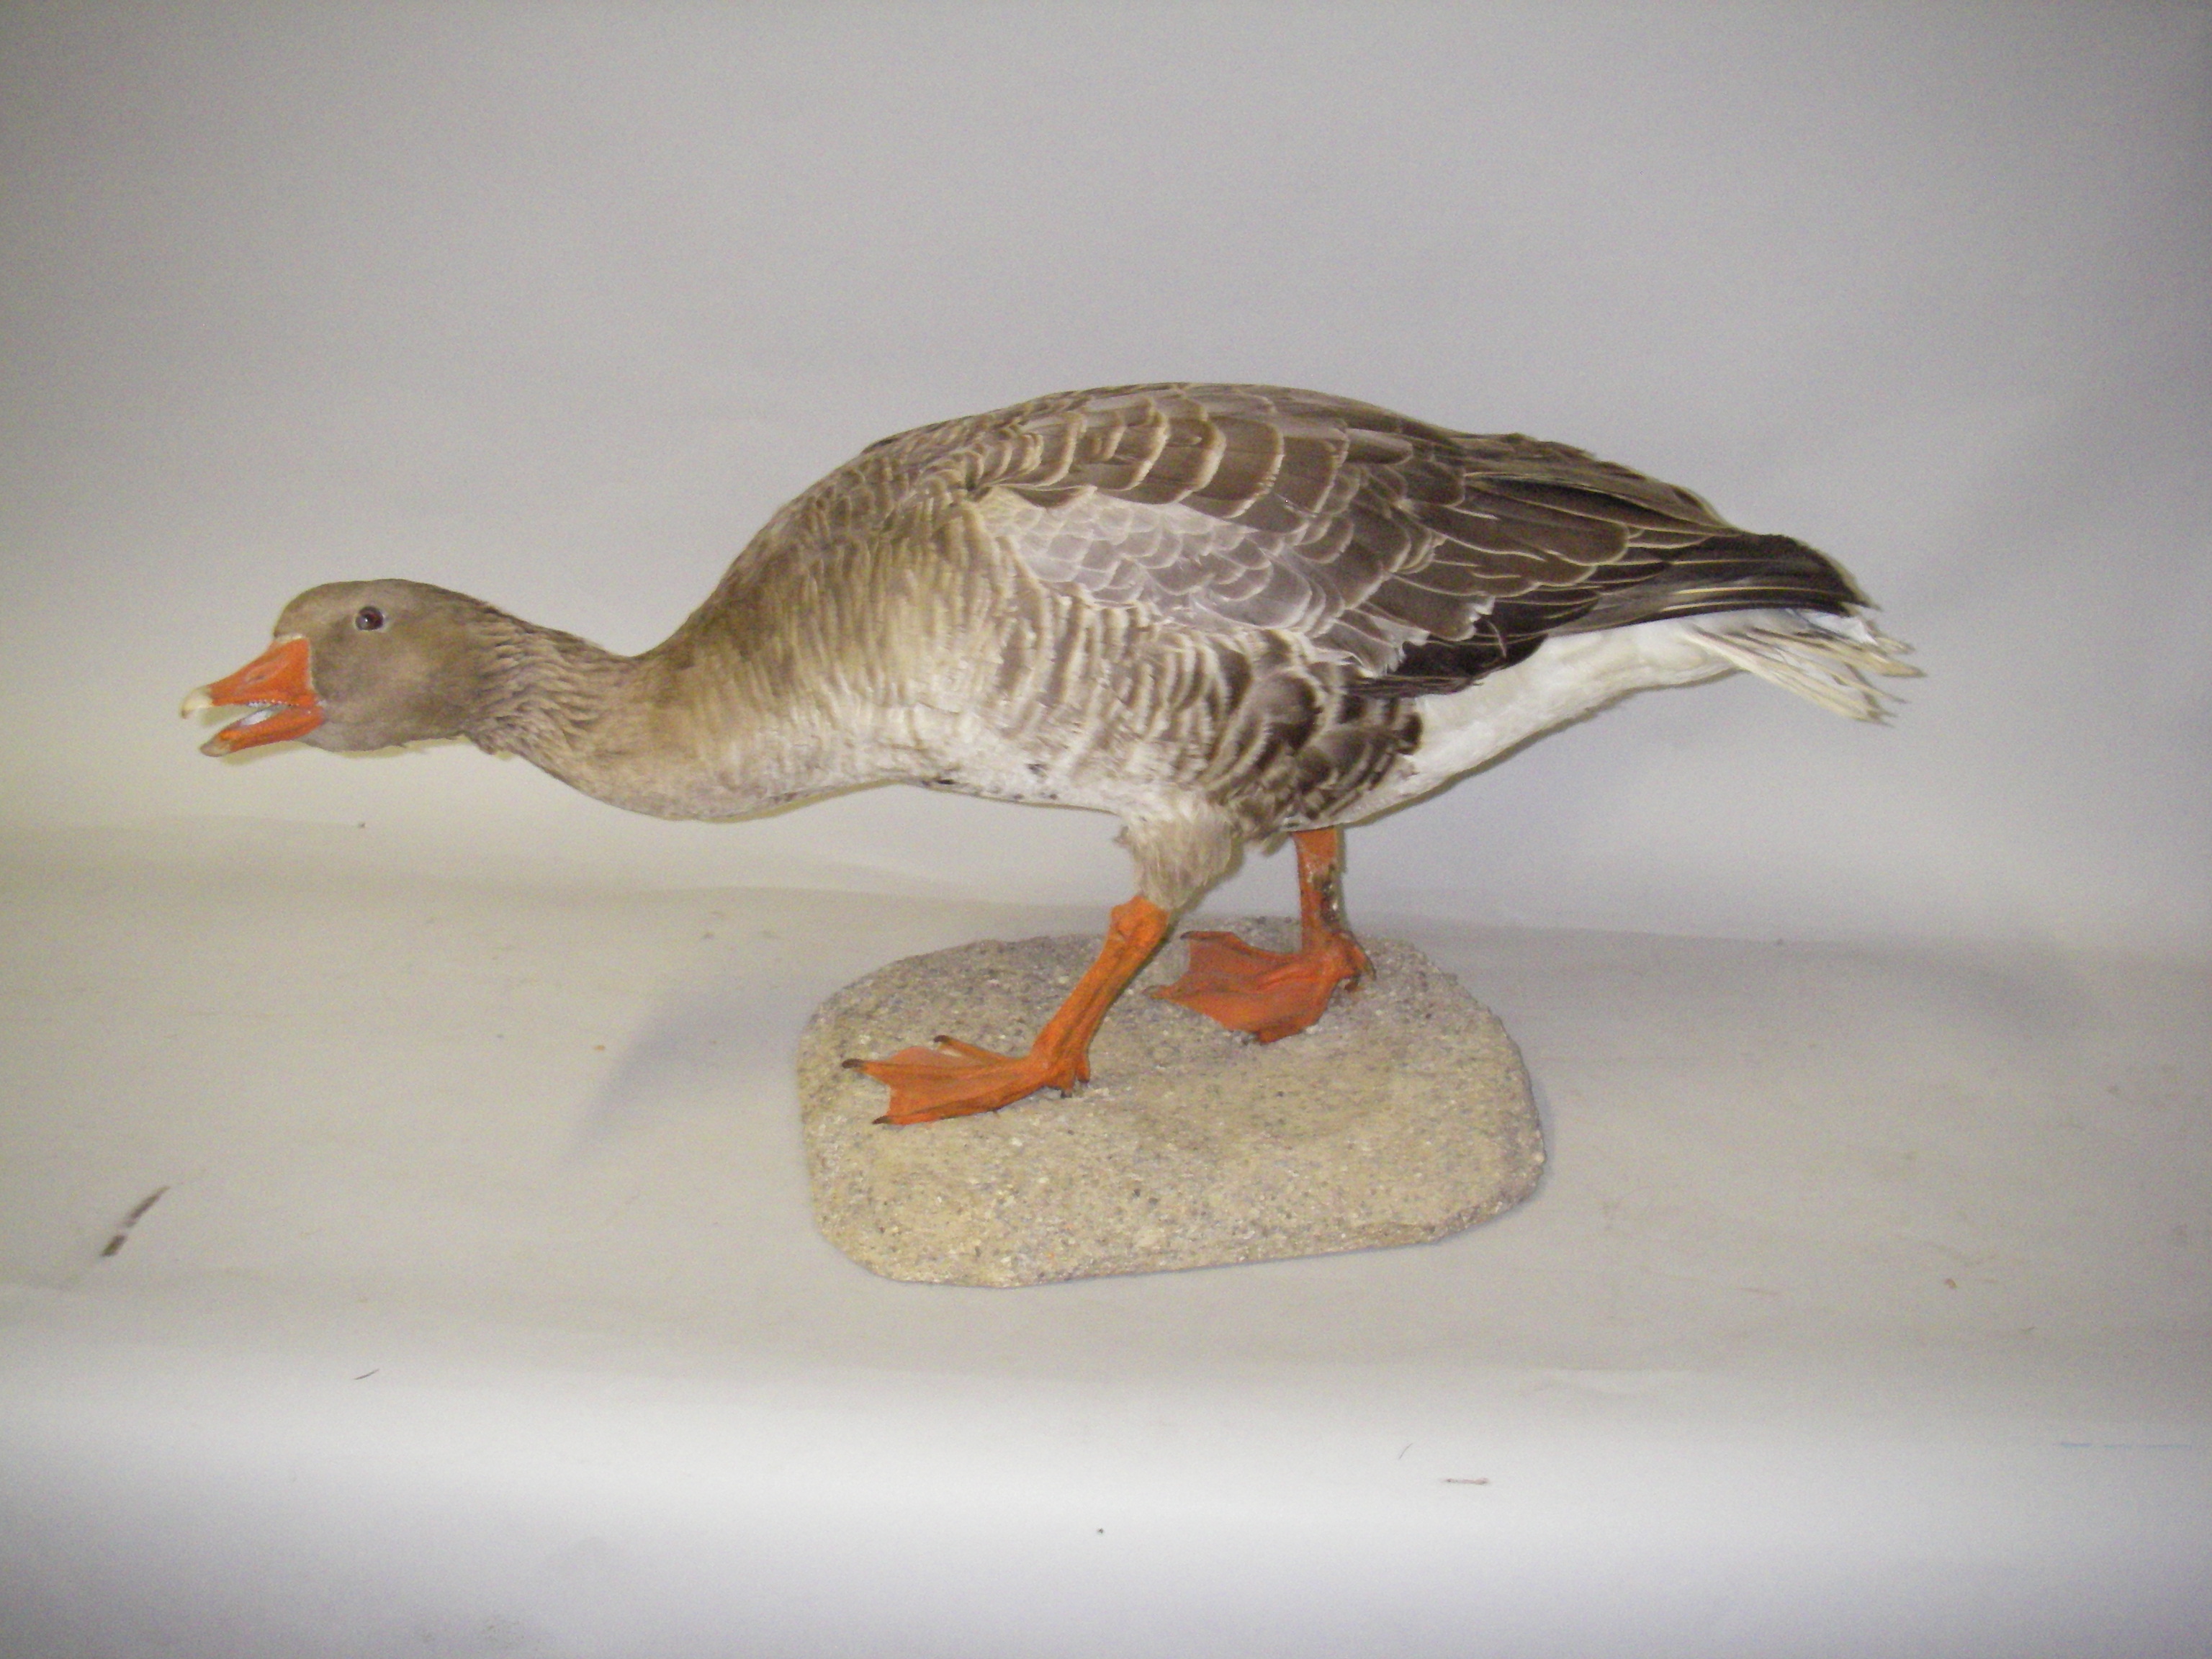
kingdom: Animalia
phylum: Chordata
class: Aves
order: Anseriformes
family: Anatidae
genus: Anser
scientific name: Anser anser
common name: Greylag goose
